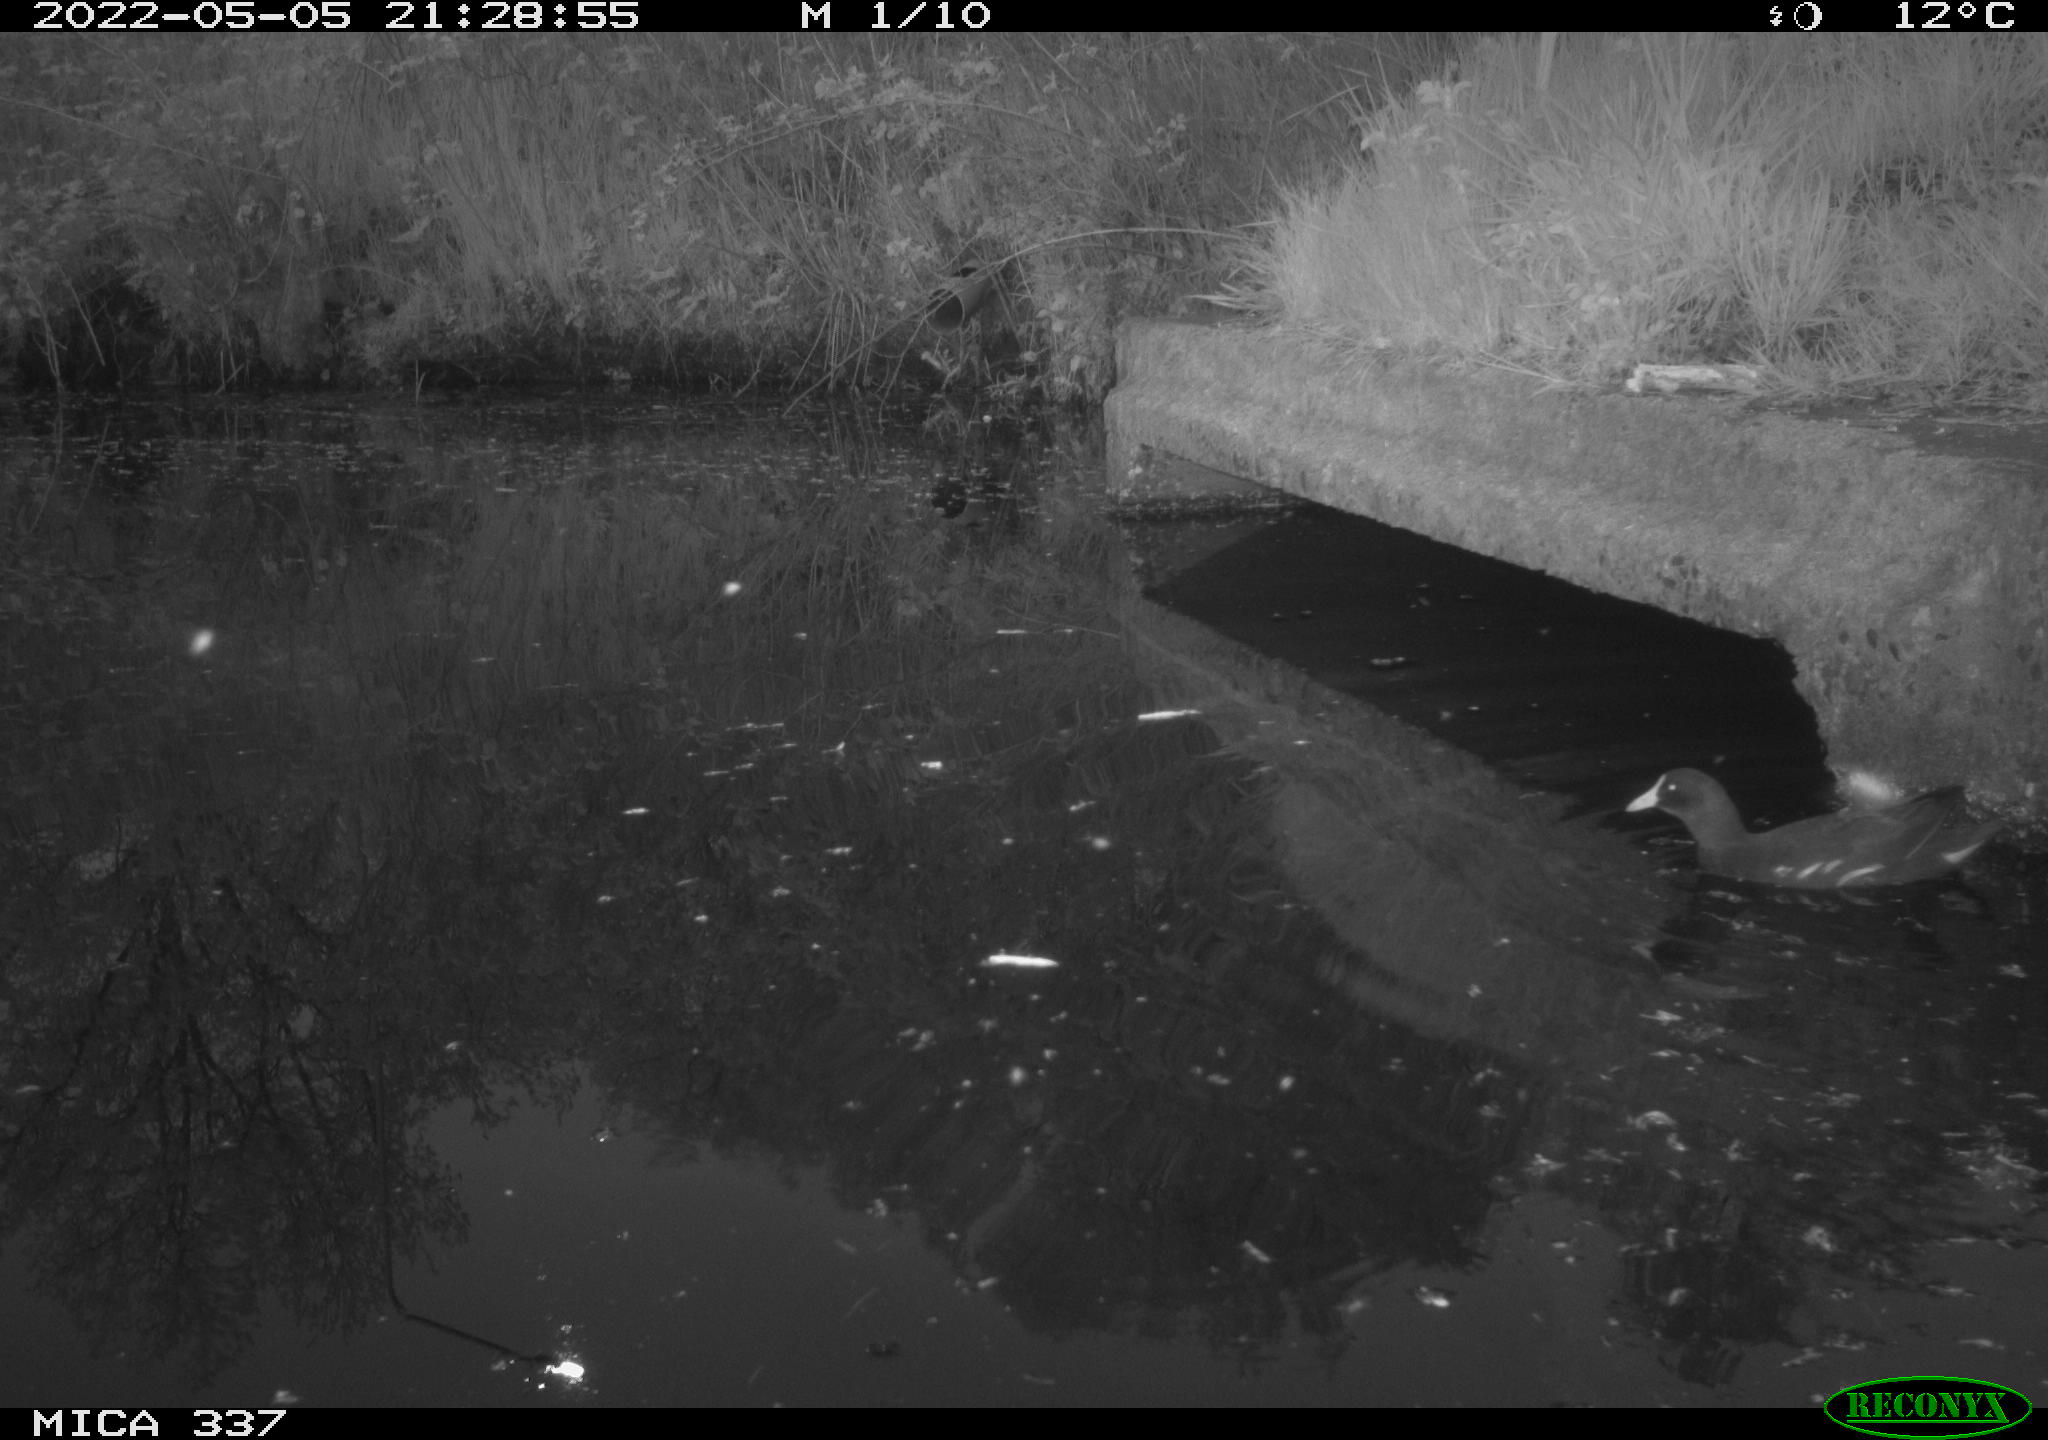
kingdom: Animalia
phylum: Chordata
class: Aves
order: Gruiformes
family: Rallidae
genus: Gallinula
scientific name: Gallinula chloropus
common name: Common moorhen
